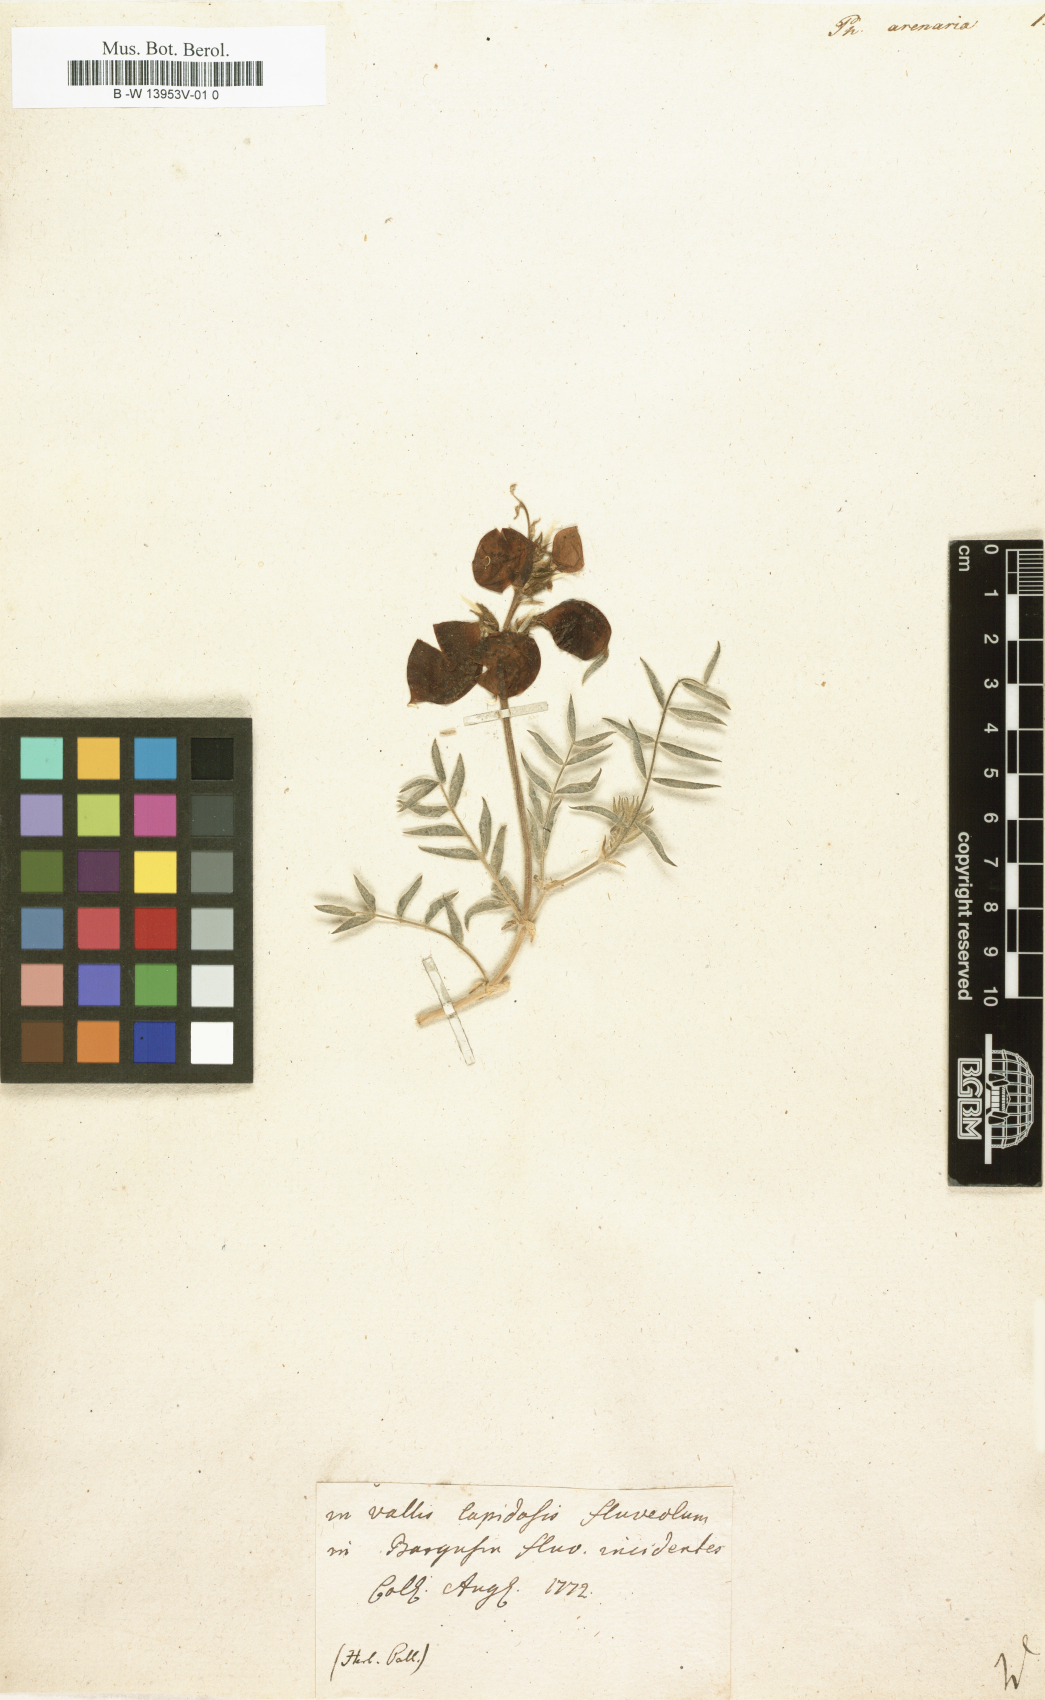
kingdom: Plantae
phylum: Tracheophyta
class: Magnoliopsida
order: Fabales
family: Fabaceae
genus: Astragalus
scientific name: Astragalus chorinensis
